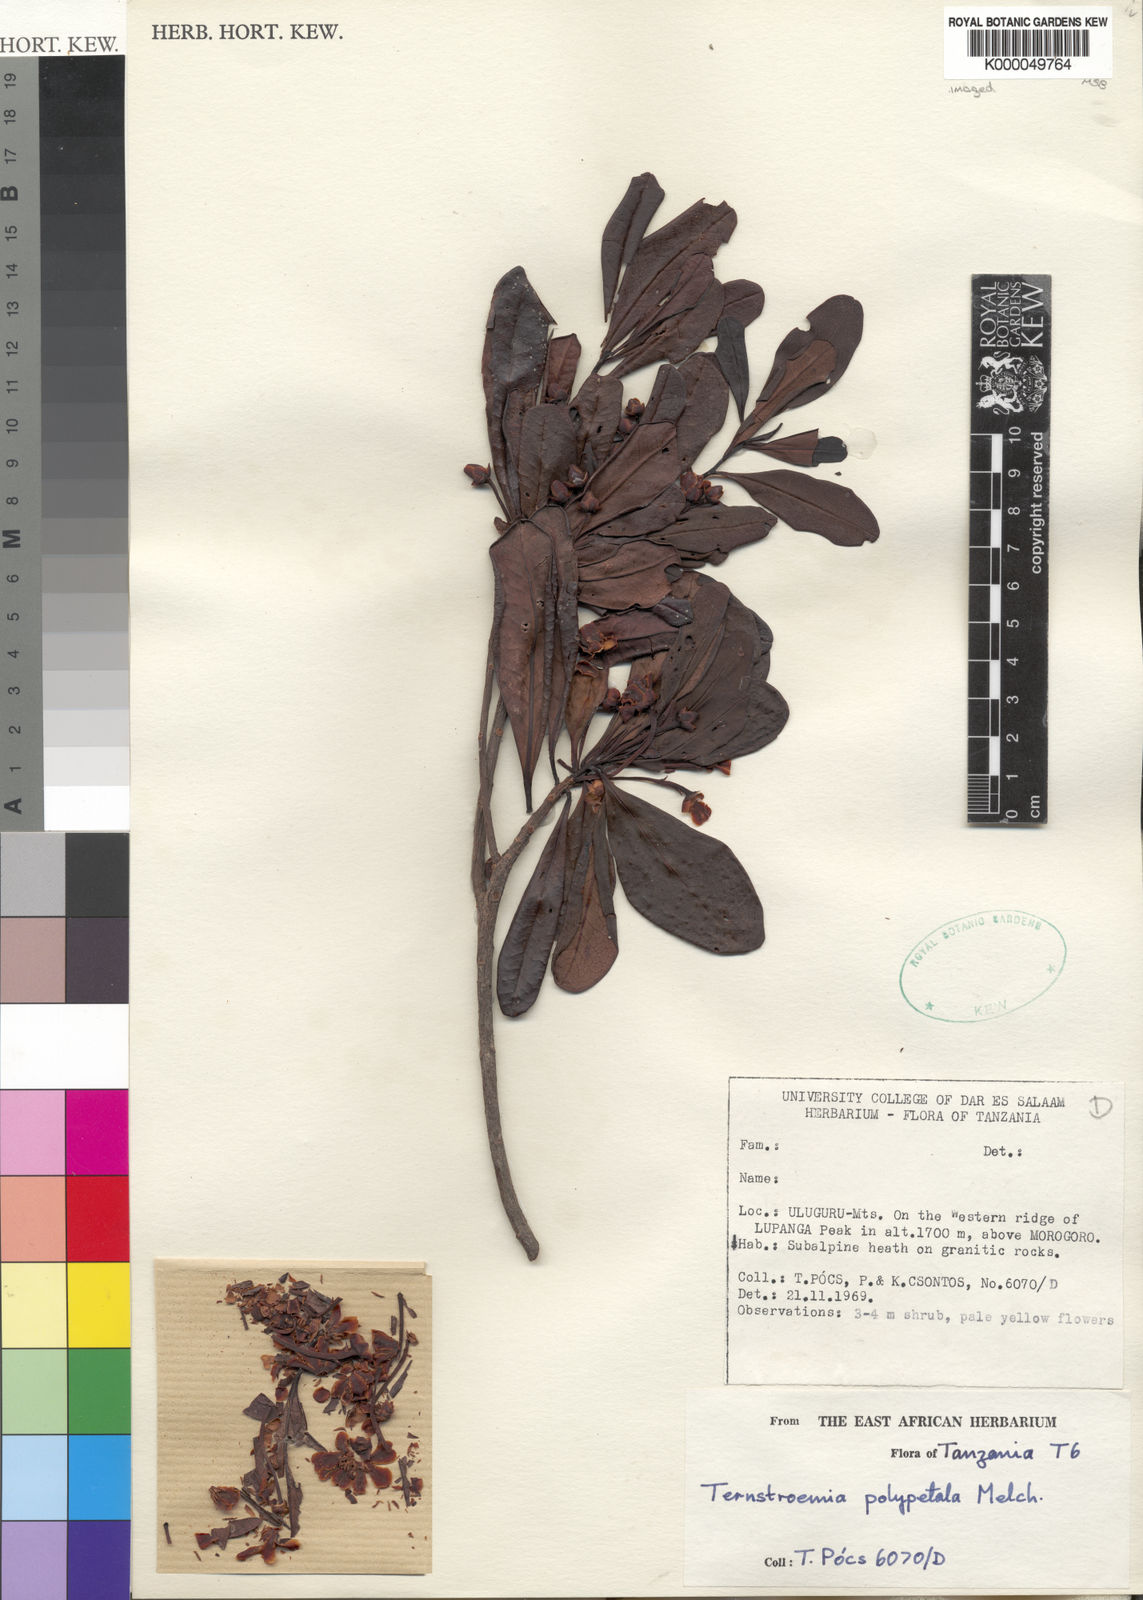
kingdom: Plantae
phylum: Tracheophyta
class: Magnoliopsida
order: Ericales
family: Pentaphylacaceae
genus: Ternstroemia
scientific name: Ternstroemia polypetala
